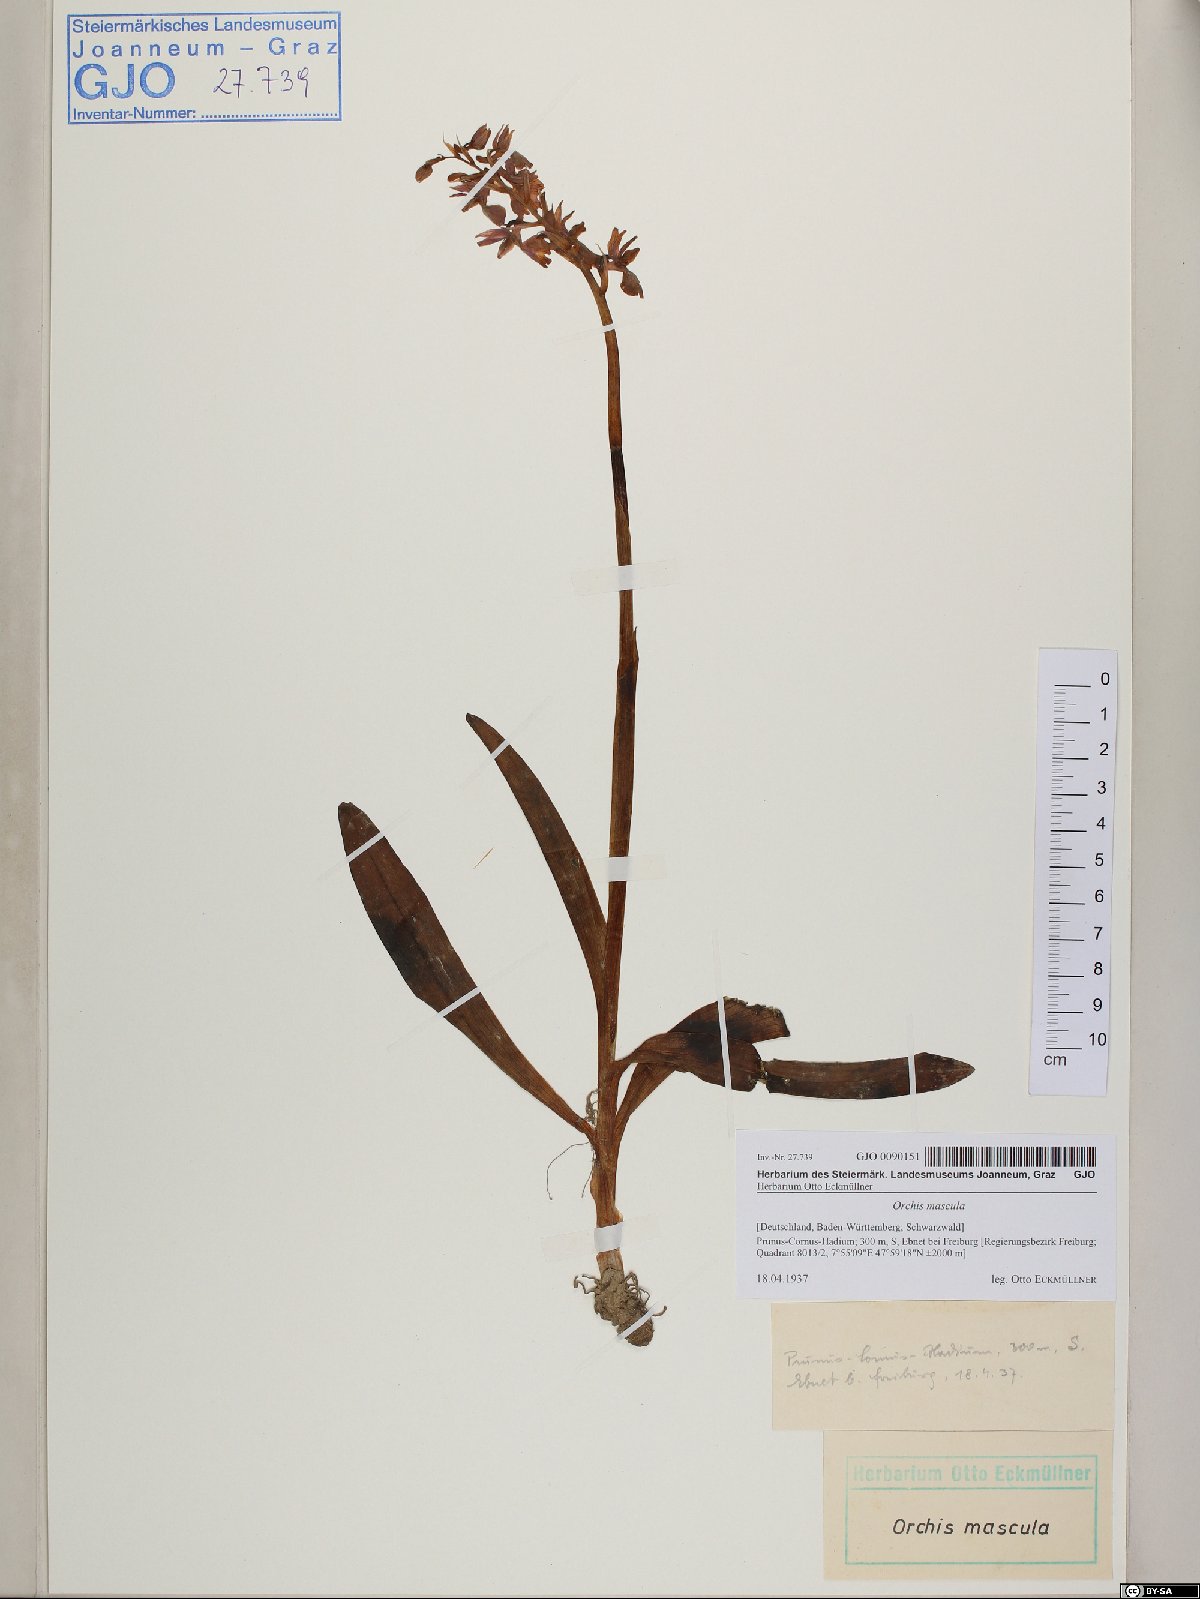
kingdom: Plantae
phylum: Tracheophyta
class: Liliopsida
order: Asparagales
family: Orchidaceae
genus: Orchis
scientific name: Orchis mascula
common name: Early-purple orchid
